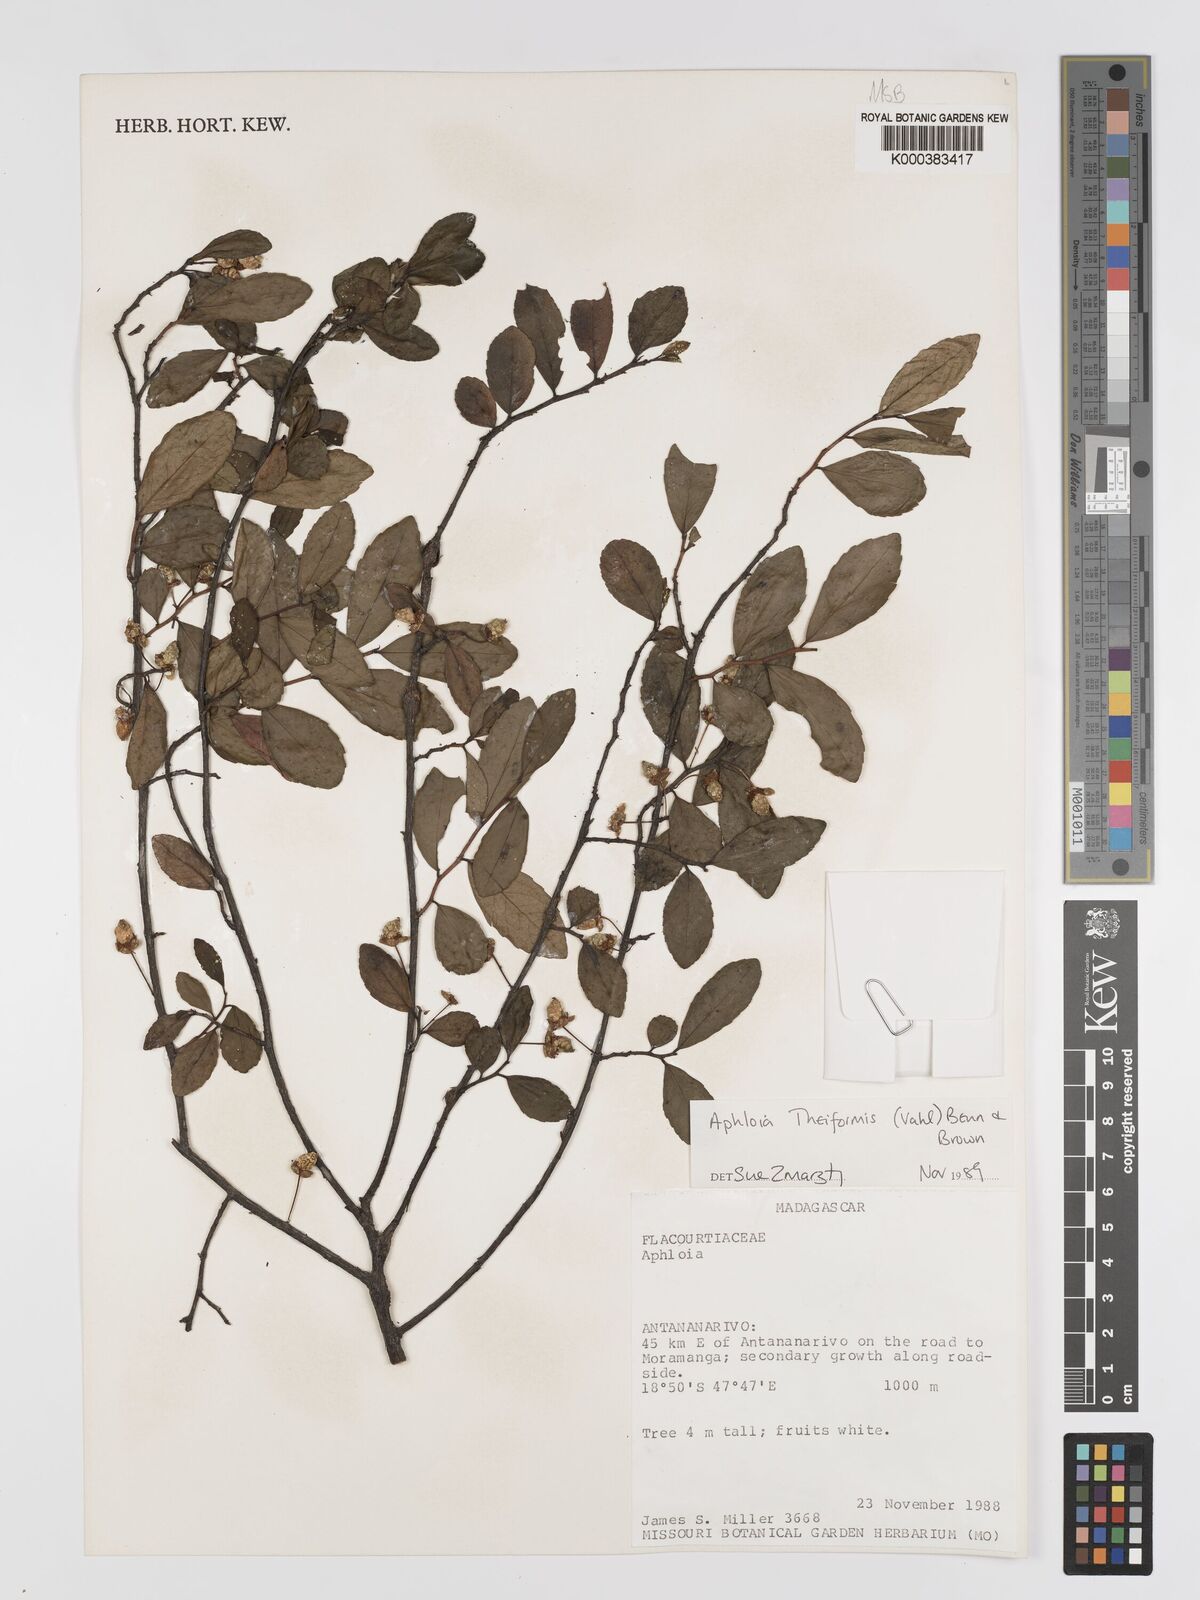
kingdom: Plantae
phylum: Tracheophyta
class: Magnoliopsida
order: Crossosomatales
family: Aphloiaceae
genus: Aphloia
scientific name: Aphloia theiformis
